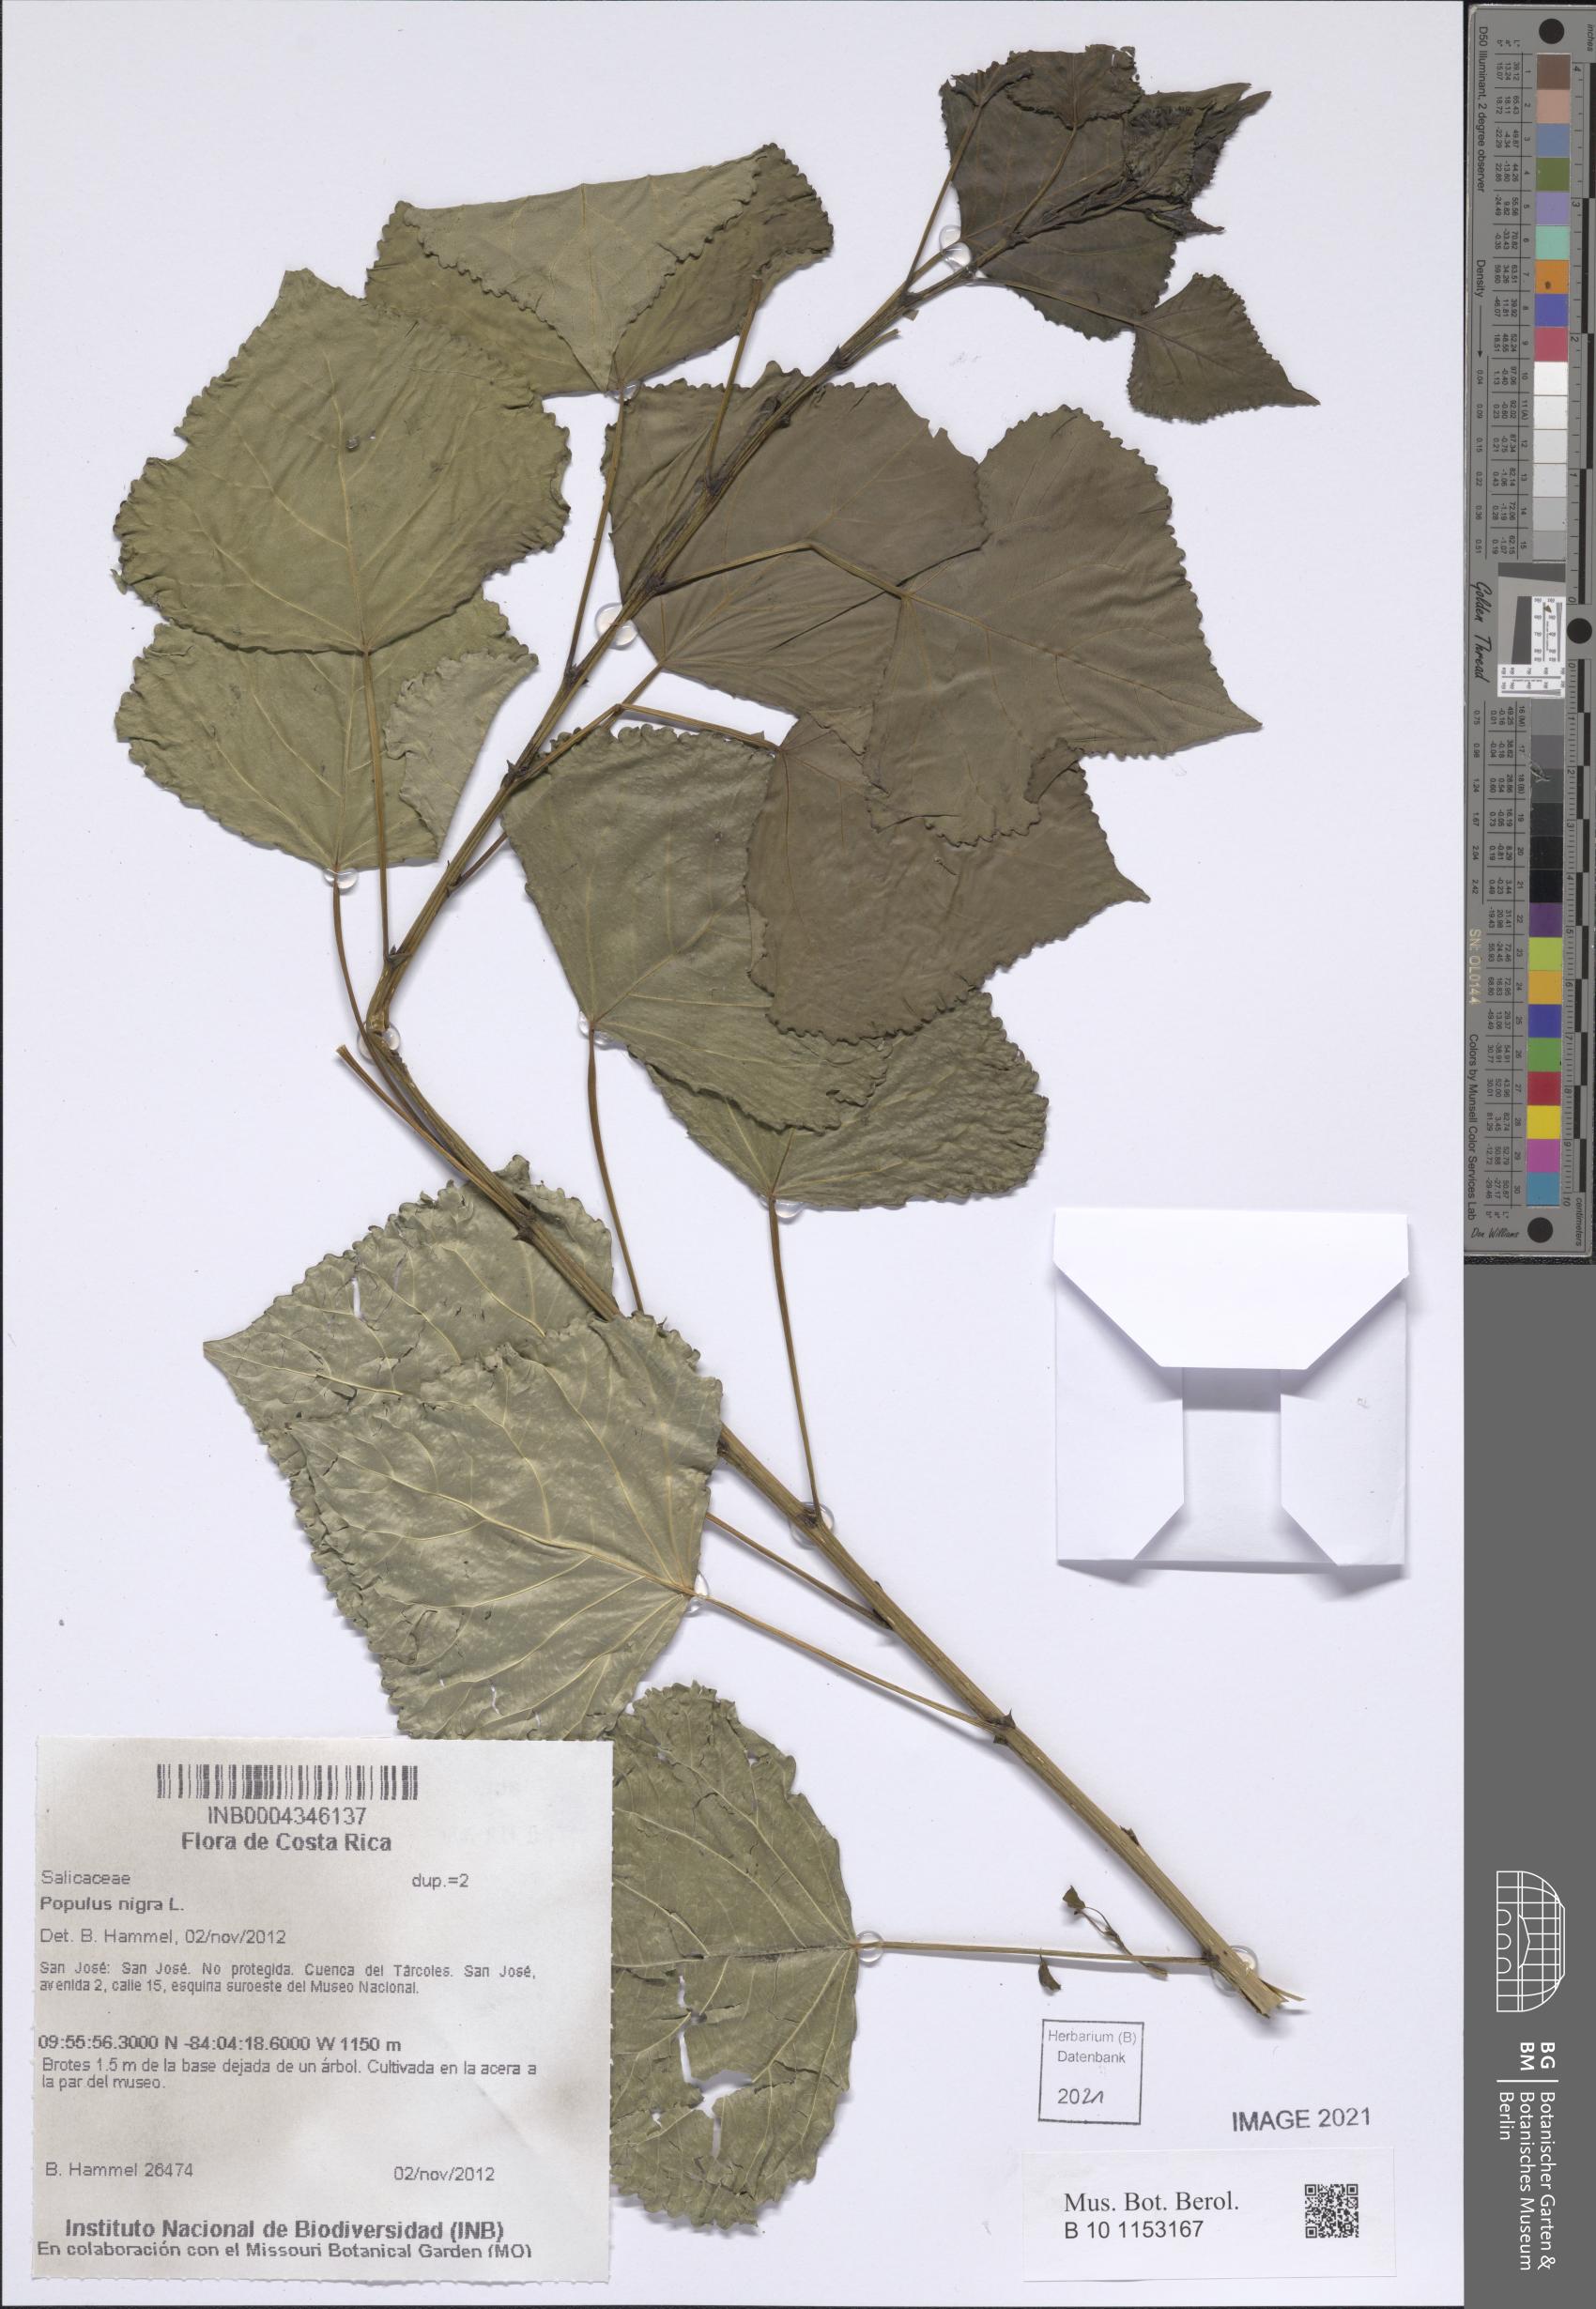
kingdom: Plantae
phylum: Tracheophyta
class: Magnoliopsida
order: Malpighiales
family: Salicaceae
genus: Populus
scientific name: Populus nigra
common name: Black poplar
